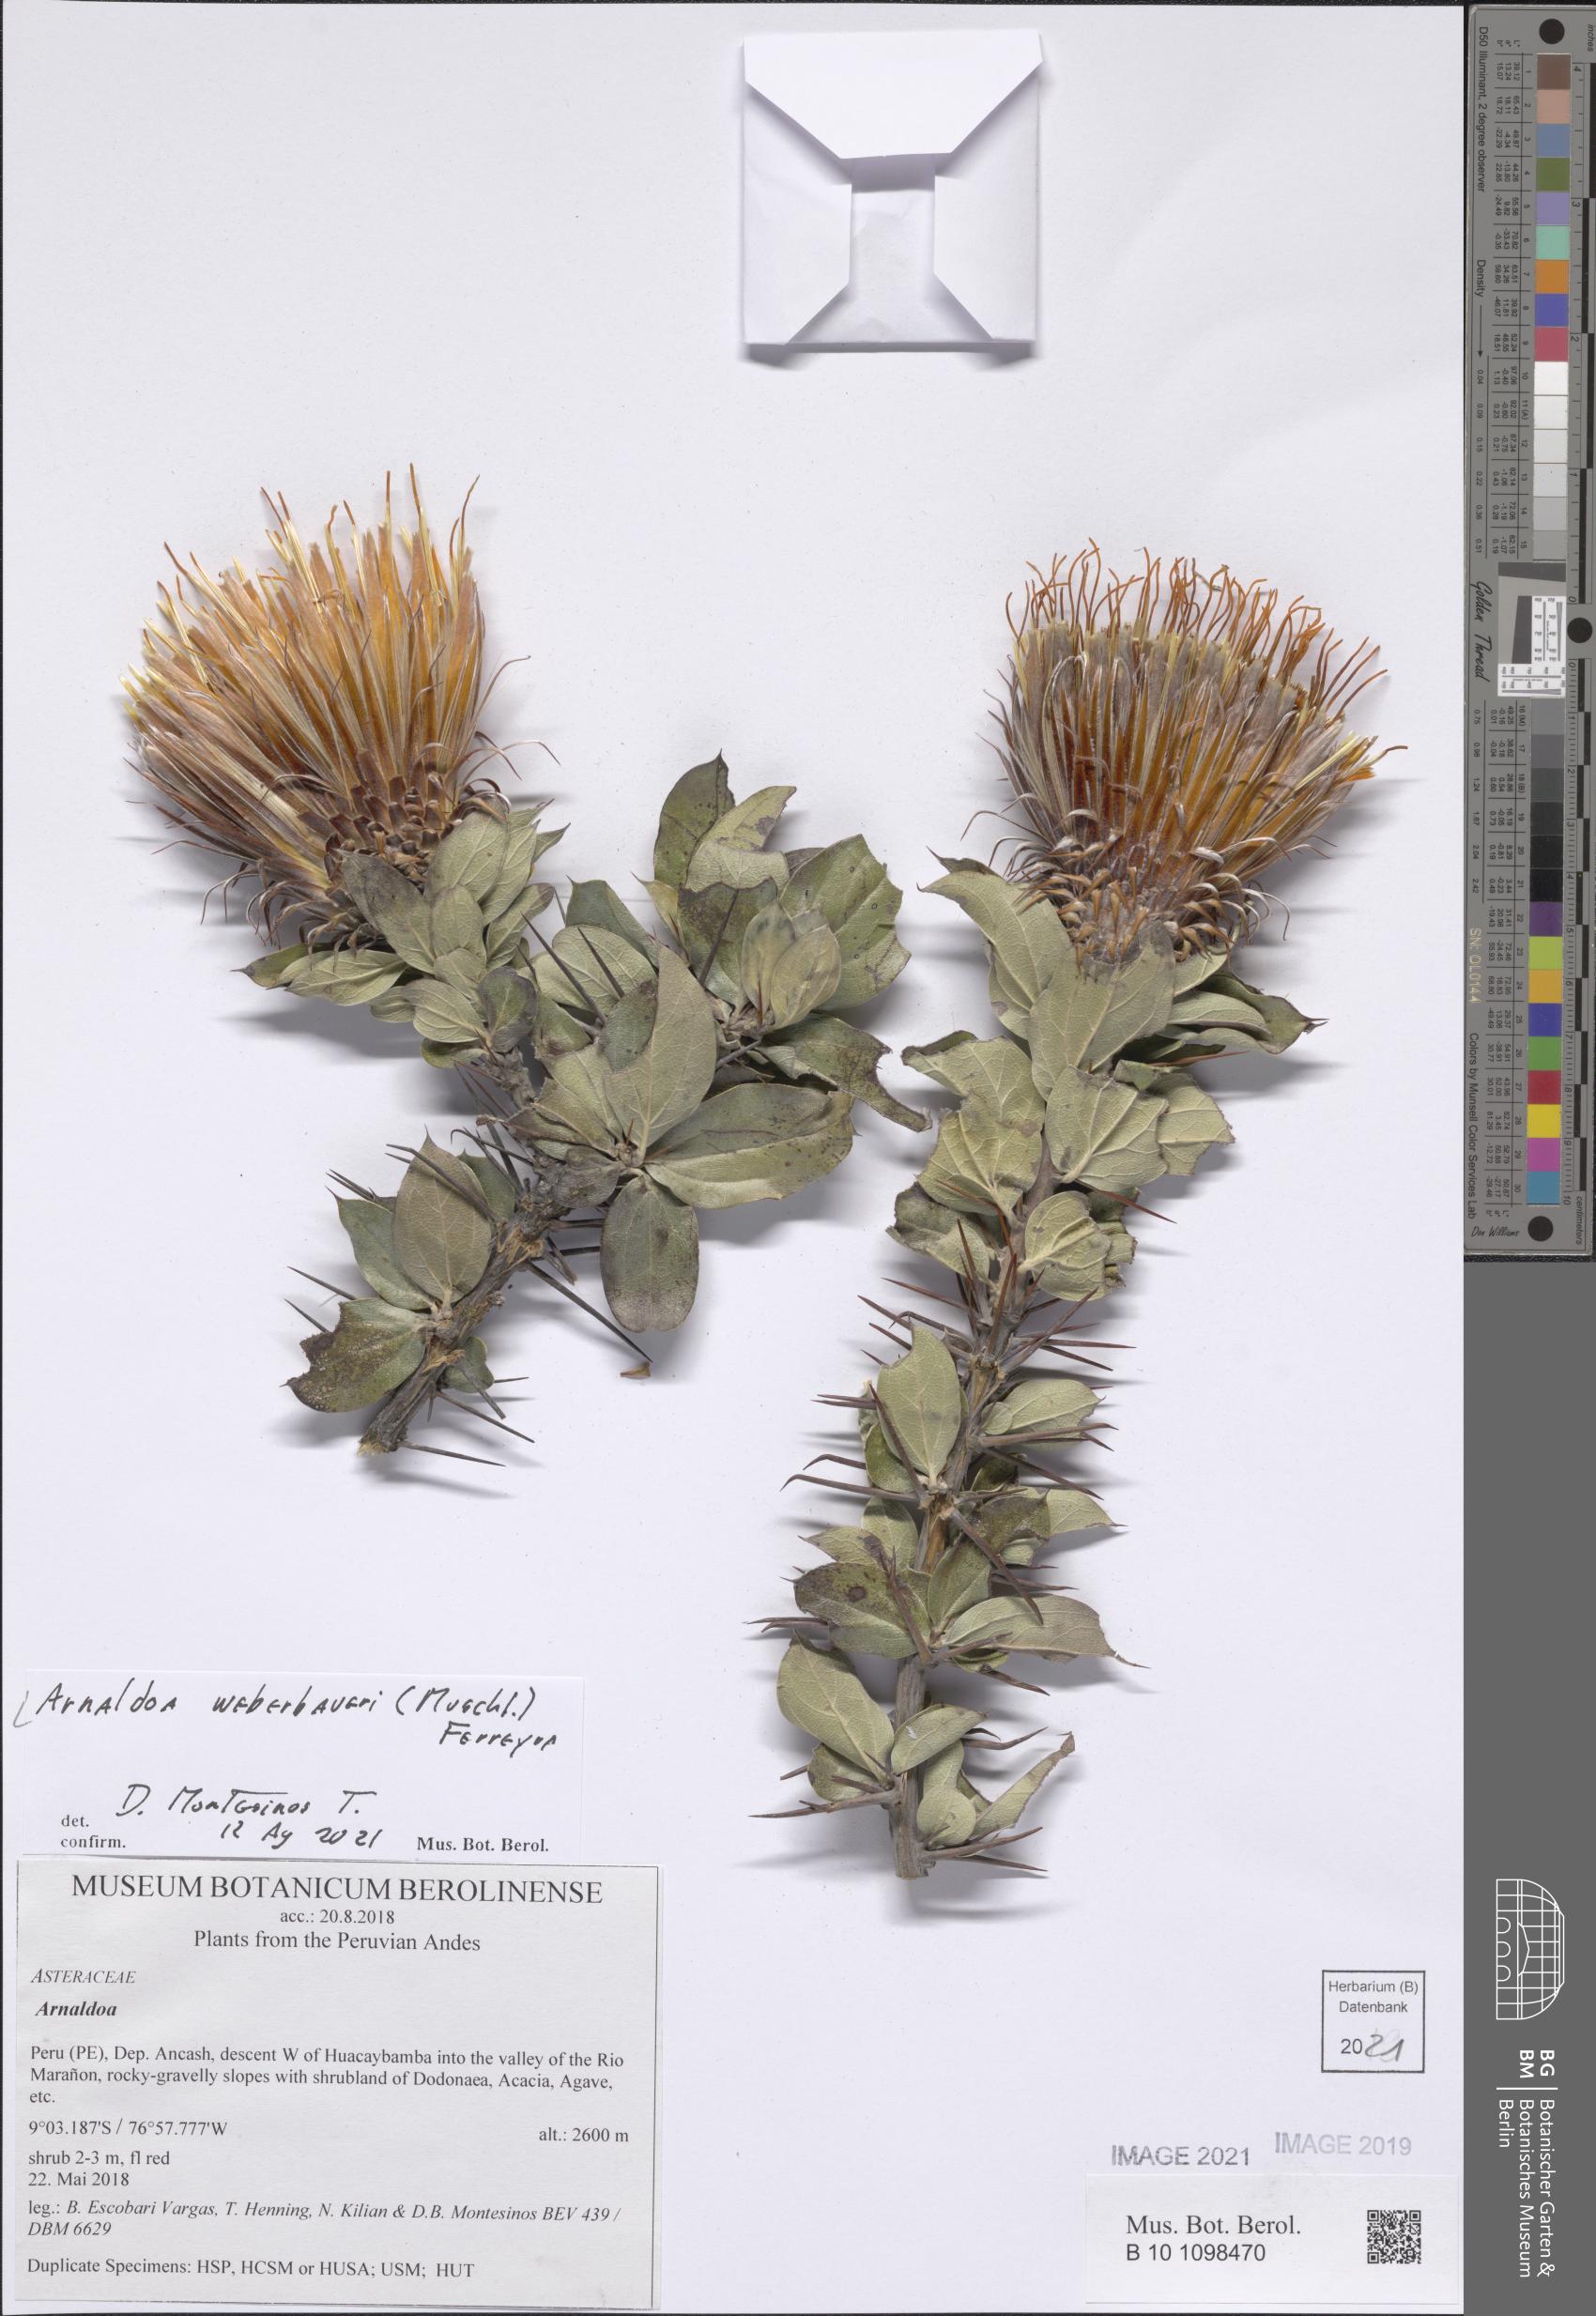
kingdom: Plantae
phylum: Tracheophyta
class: Magnoliopsida
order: Asterales
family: Asteraceae
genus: Arnaldoa
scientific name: Arnaldoa weberbaueri
